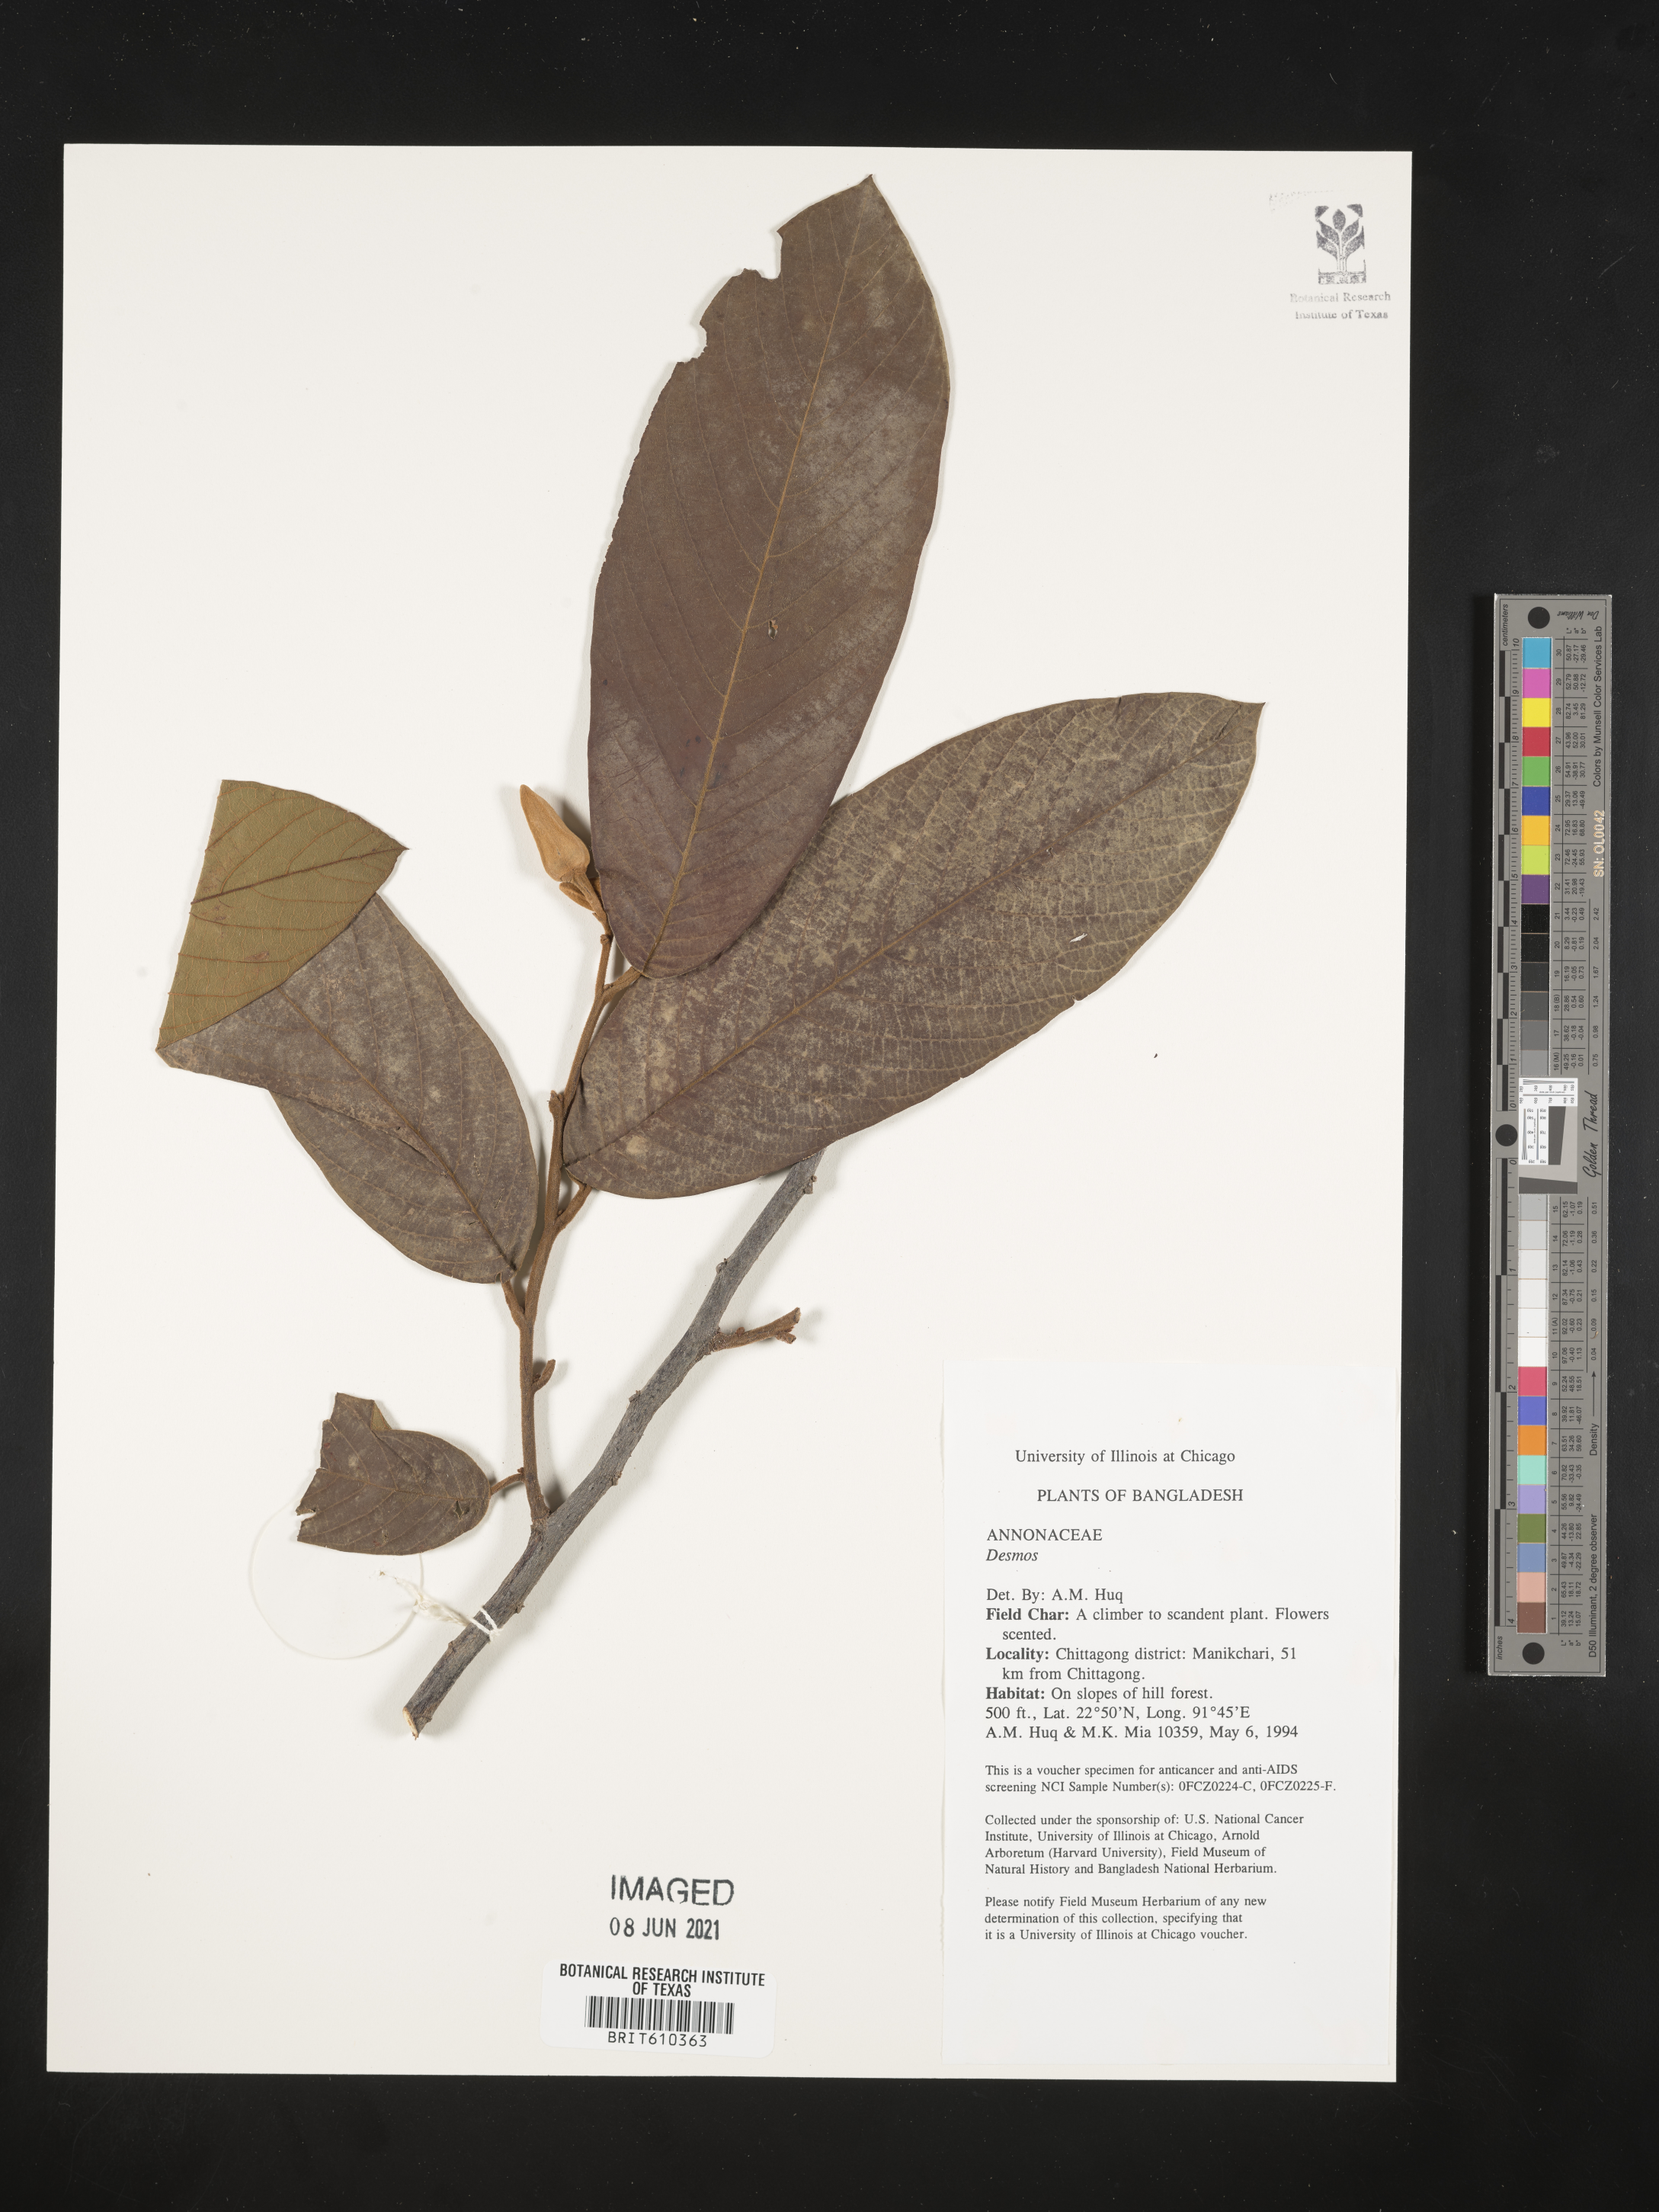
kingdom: Plantae
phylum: Tracheophyta
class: Magnoliopsida
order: Magnoliales
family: Annonaceae
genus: Desmos
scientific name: Desmos
